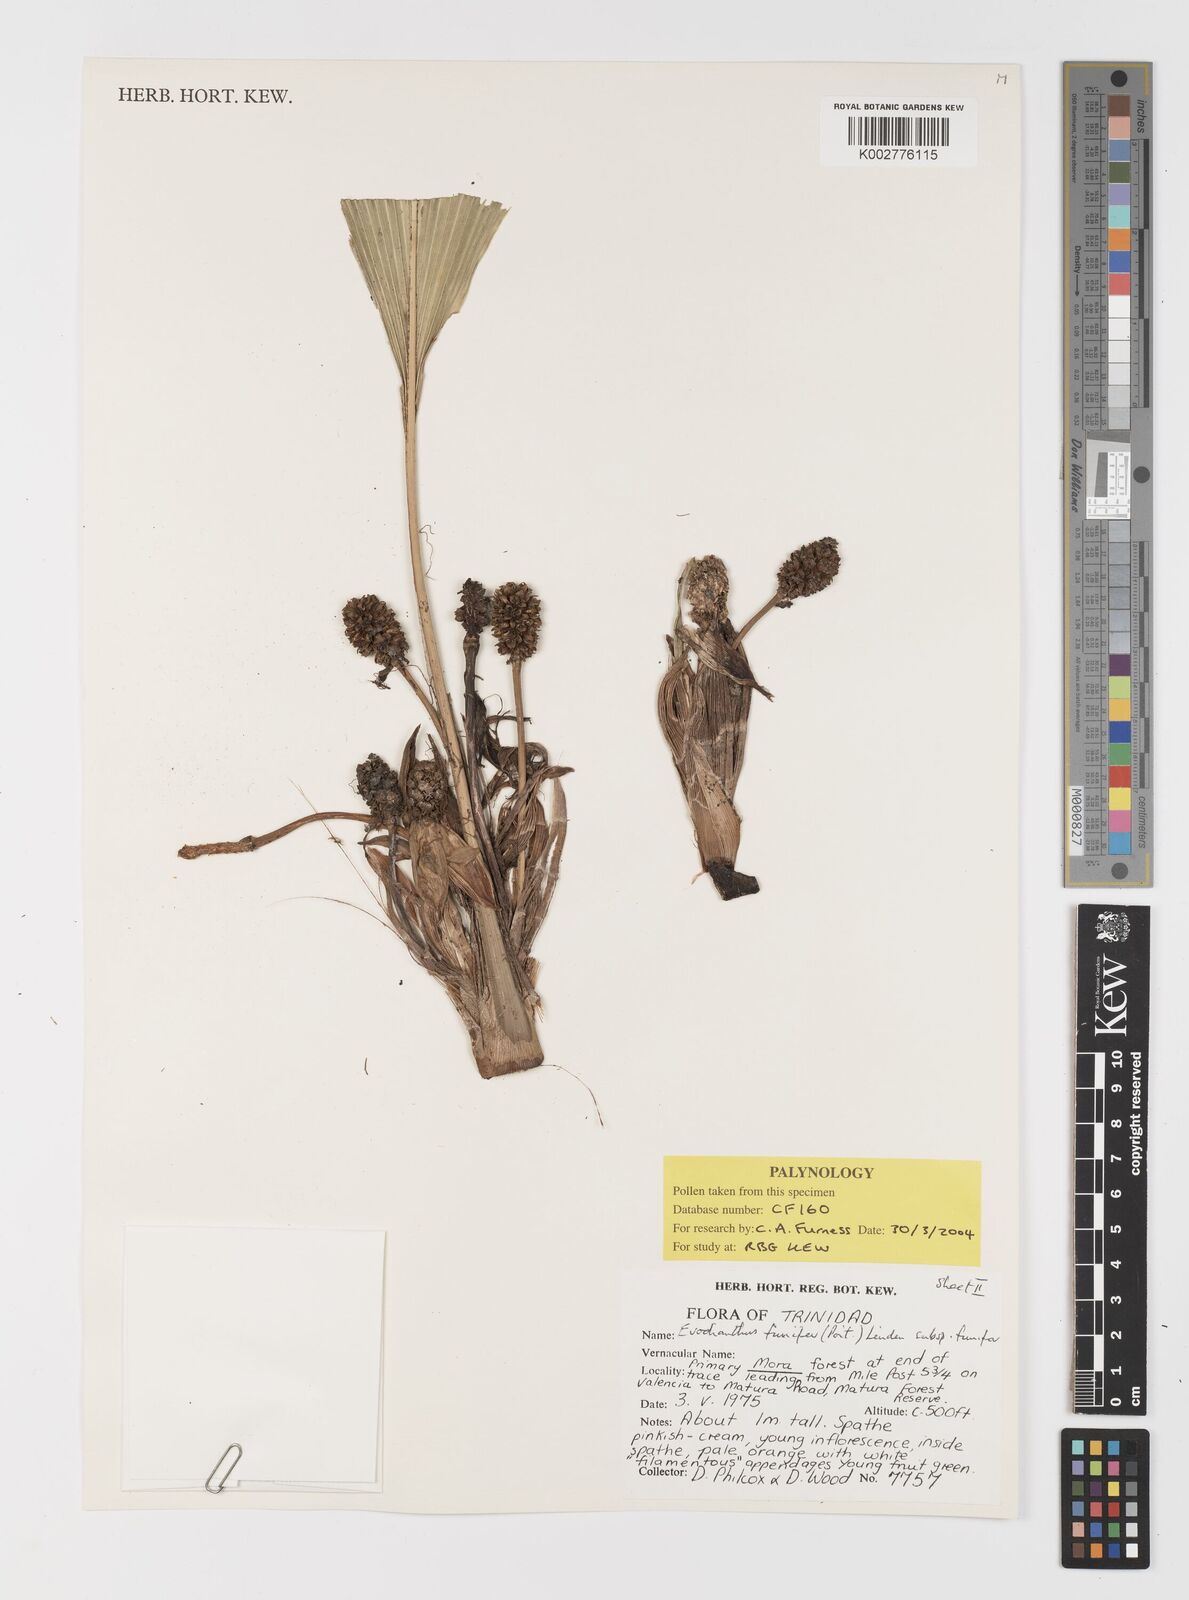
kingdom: Plantae
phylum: Tracheophyta
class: Liliopsida
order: Pandanales
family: Cyclanthaceae
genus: Evodianthus
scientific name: Evodianthus funifer
